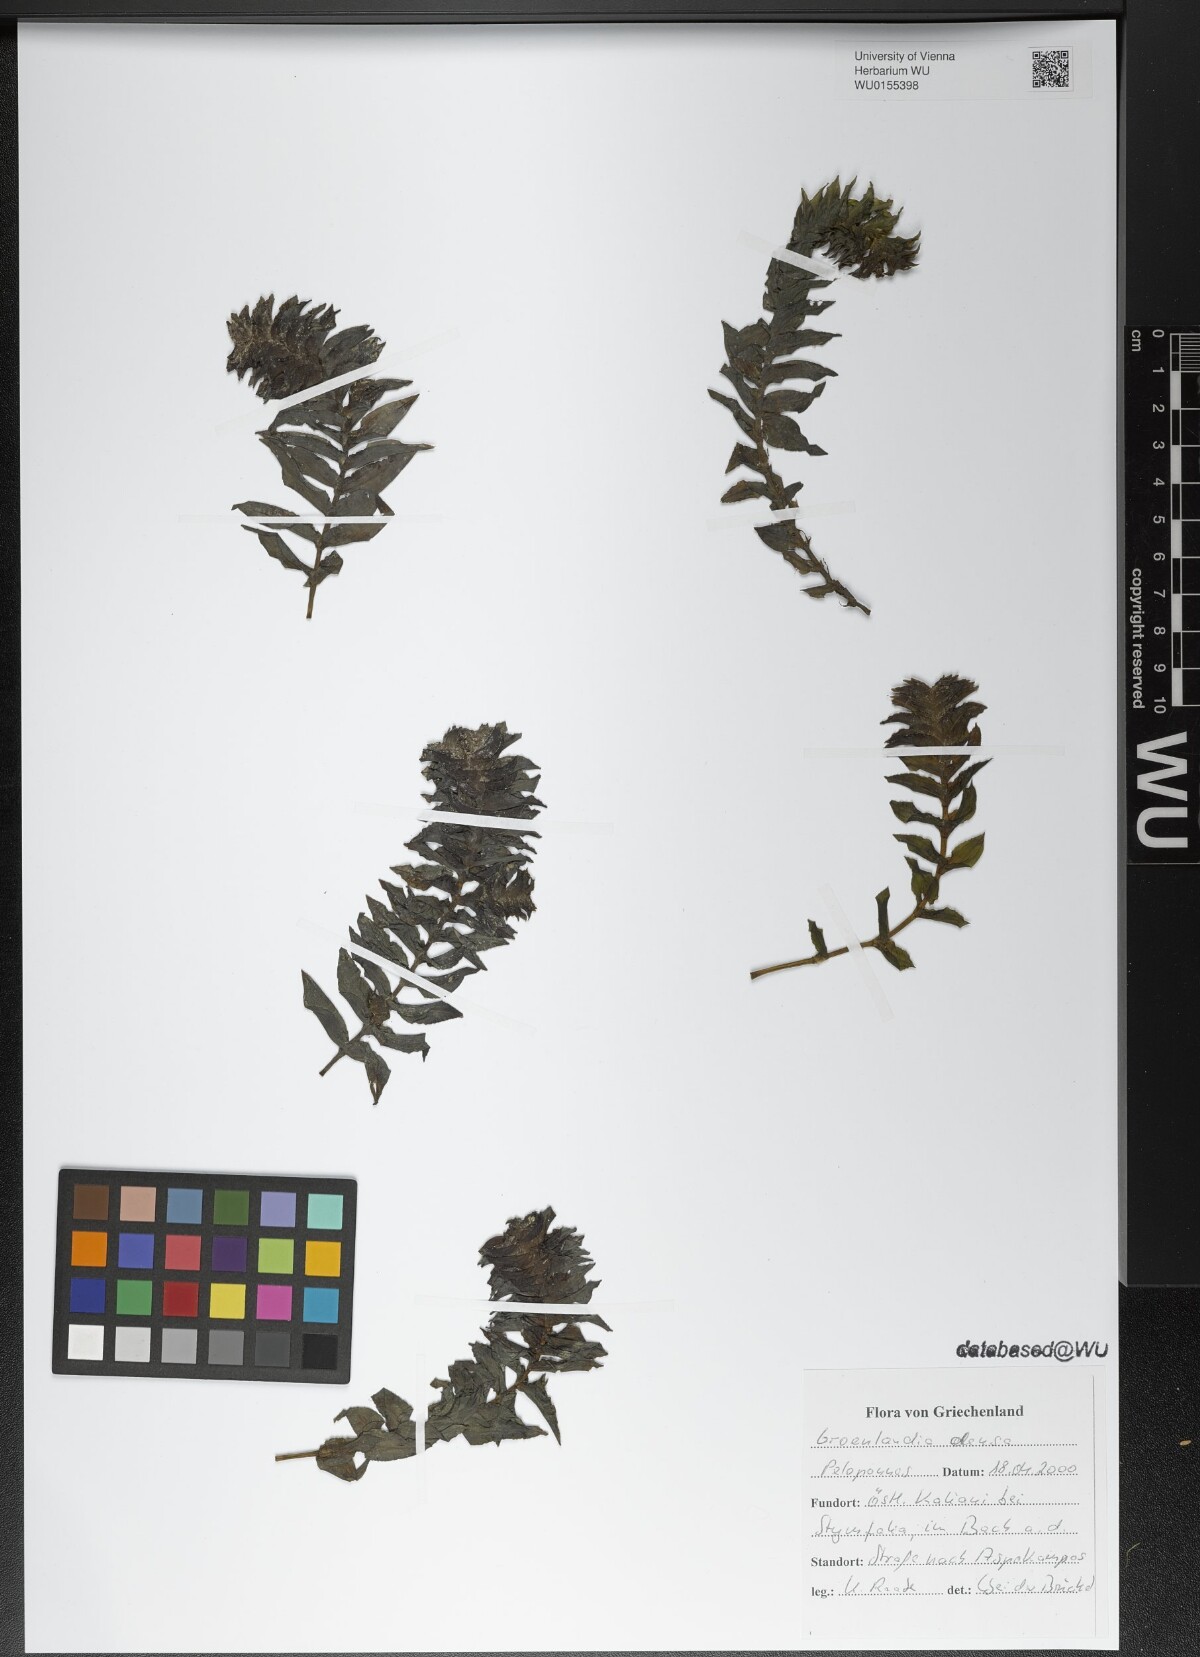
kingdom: Plantae
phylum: Tracheophyta
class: Liliopsida
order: Alismatales
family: Potamogetonaceae
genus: Groenlandia
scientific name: Groenlandia densa
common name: Opposite-leaved pondweed
